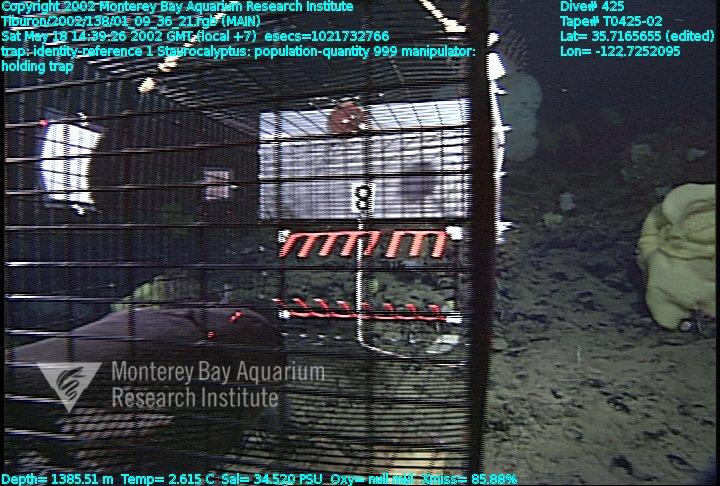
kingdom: Animalia
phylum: Porifera
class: Hexactinellida
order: Lyssacinosida
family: Rossellidae
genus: Staurocalyptus
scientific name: Staurocalyptus
